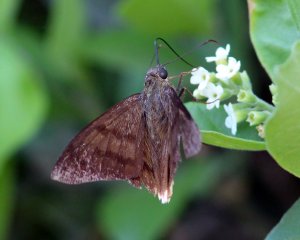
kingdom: Animalia
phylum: Arthropoda
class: Insecta
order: Lepidoptera
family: Hesperiidae
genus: Astraptes
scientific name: Astraptes anaphus
